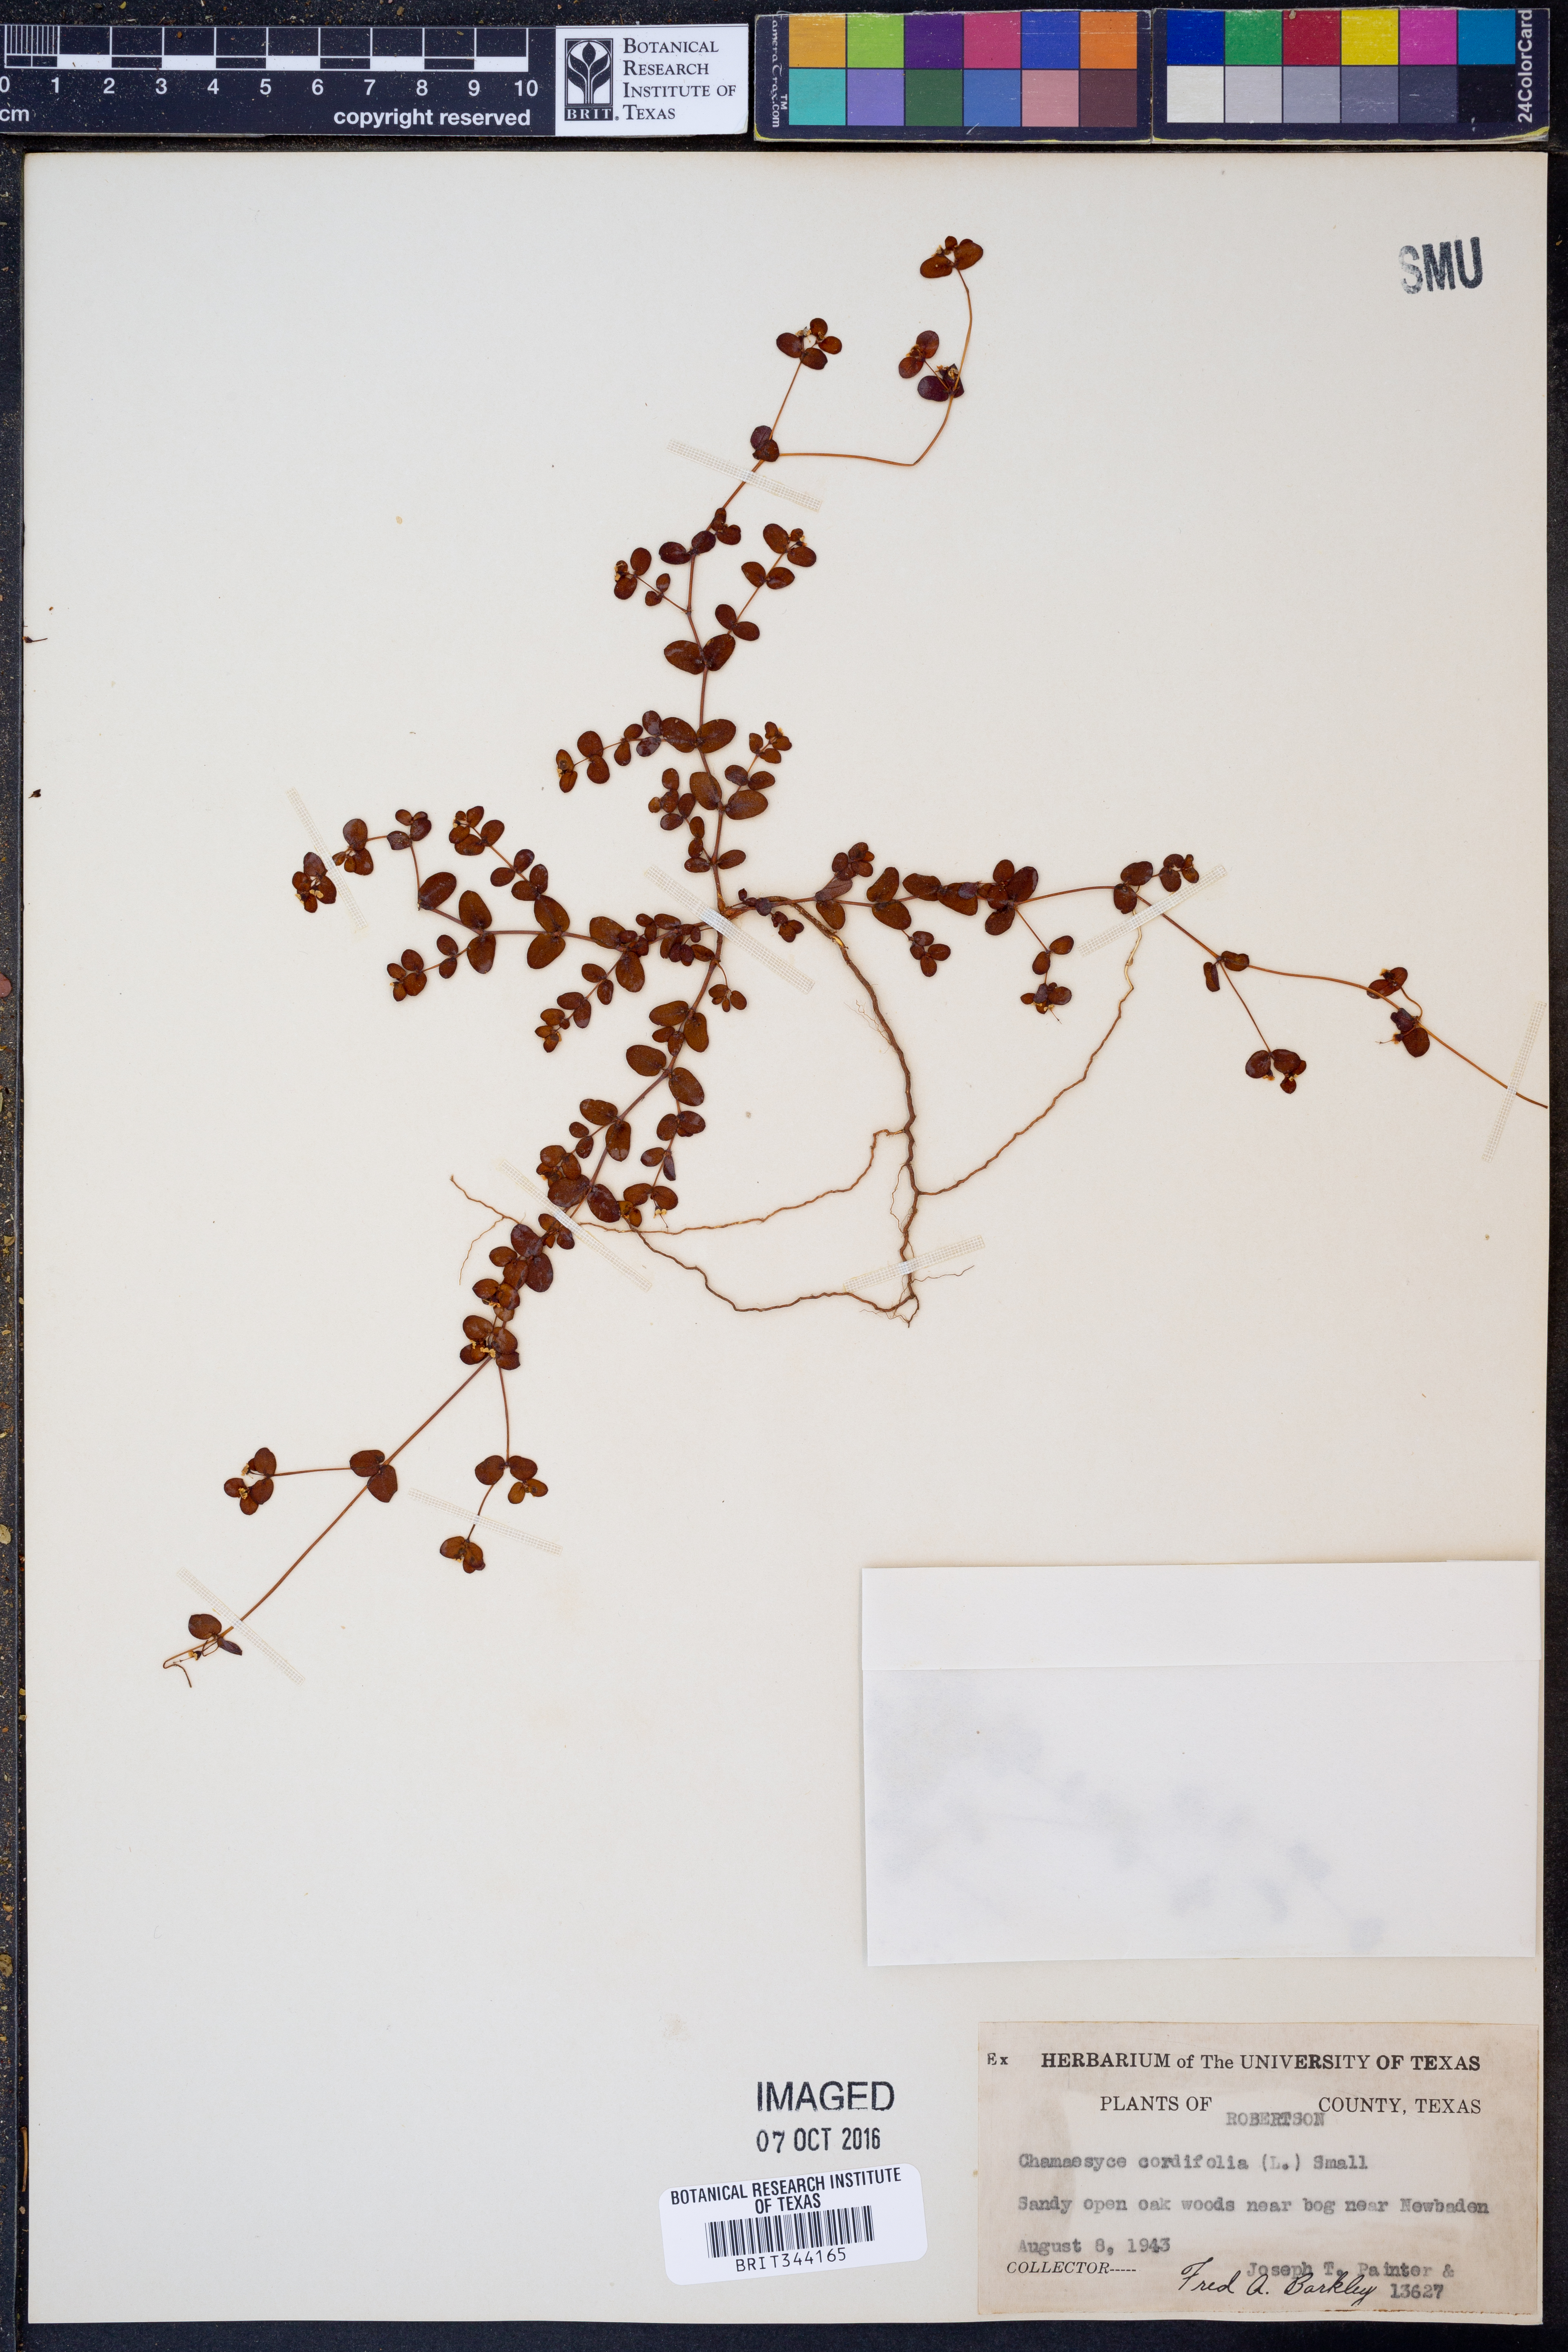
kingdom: Plantae
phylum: Tracheophyta
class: Magnoliopsida
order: Malpighiales
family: Euphorbiaceae
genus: Euphorbia
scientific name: Euphorbia cordifolia
